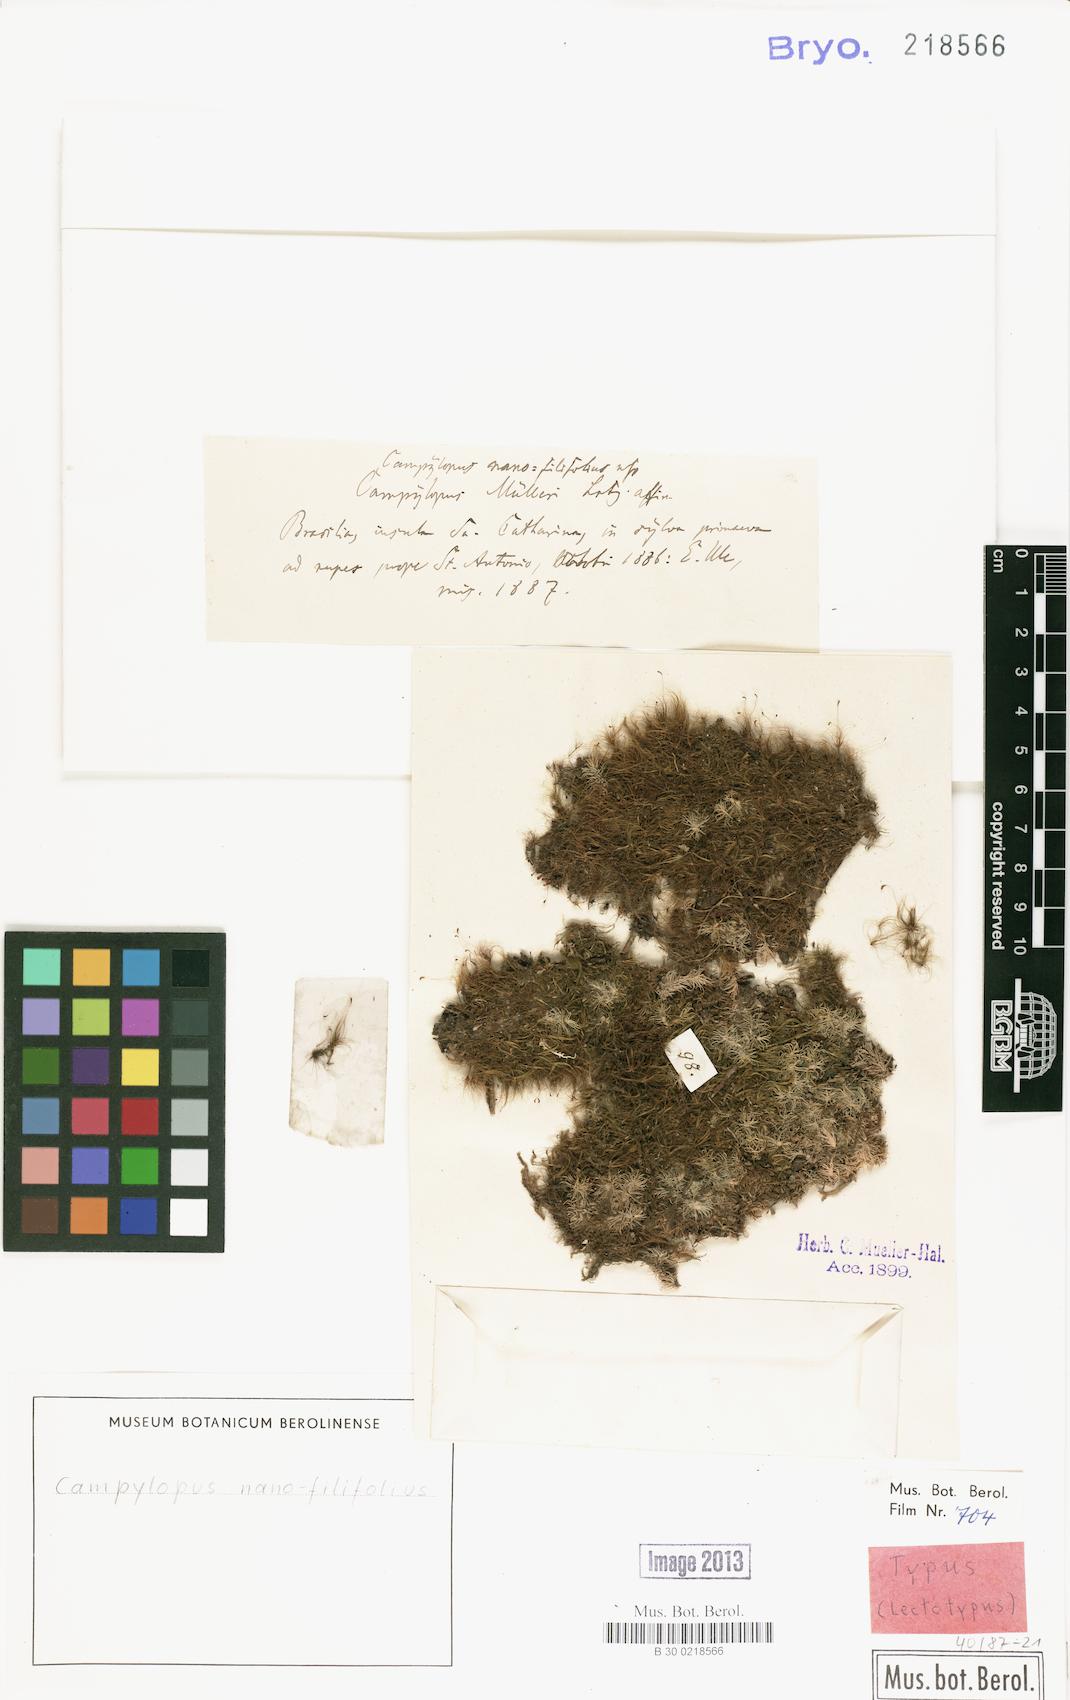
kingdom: Plantae
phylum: Bryophyta
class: Bryopsida
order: Dicranales
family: Leucobryaceae
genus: Campylopus
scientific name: Campylopus filifolius
